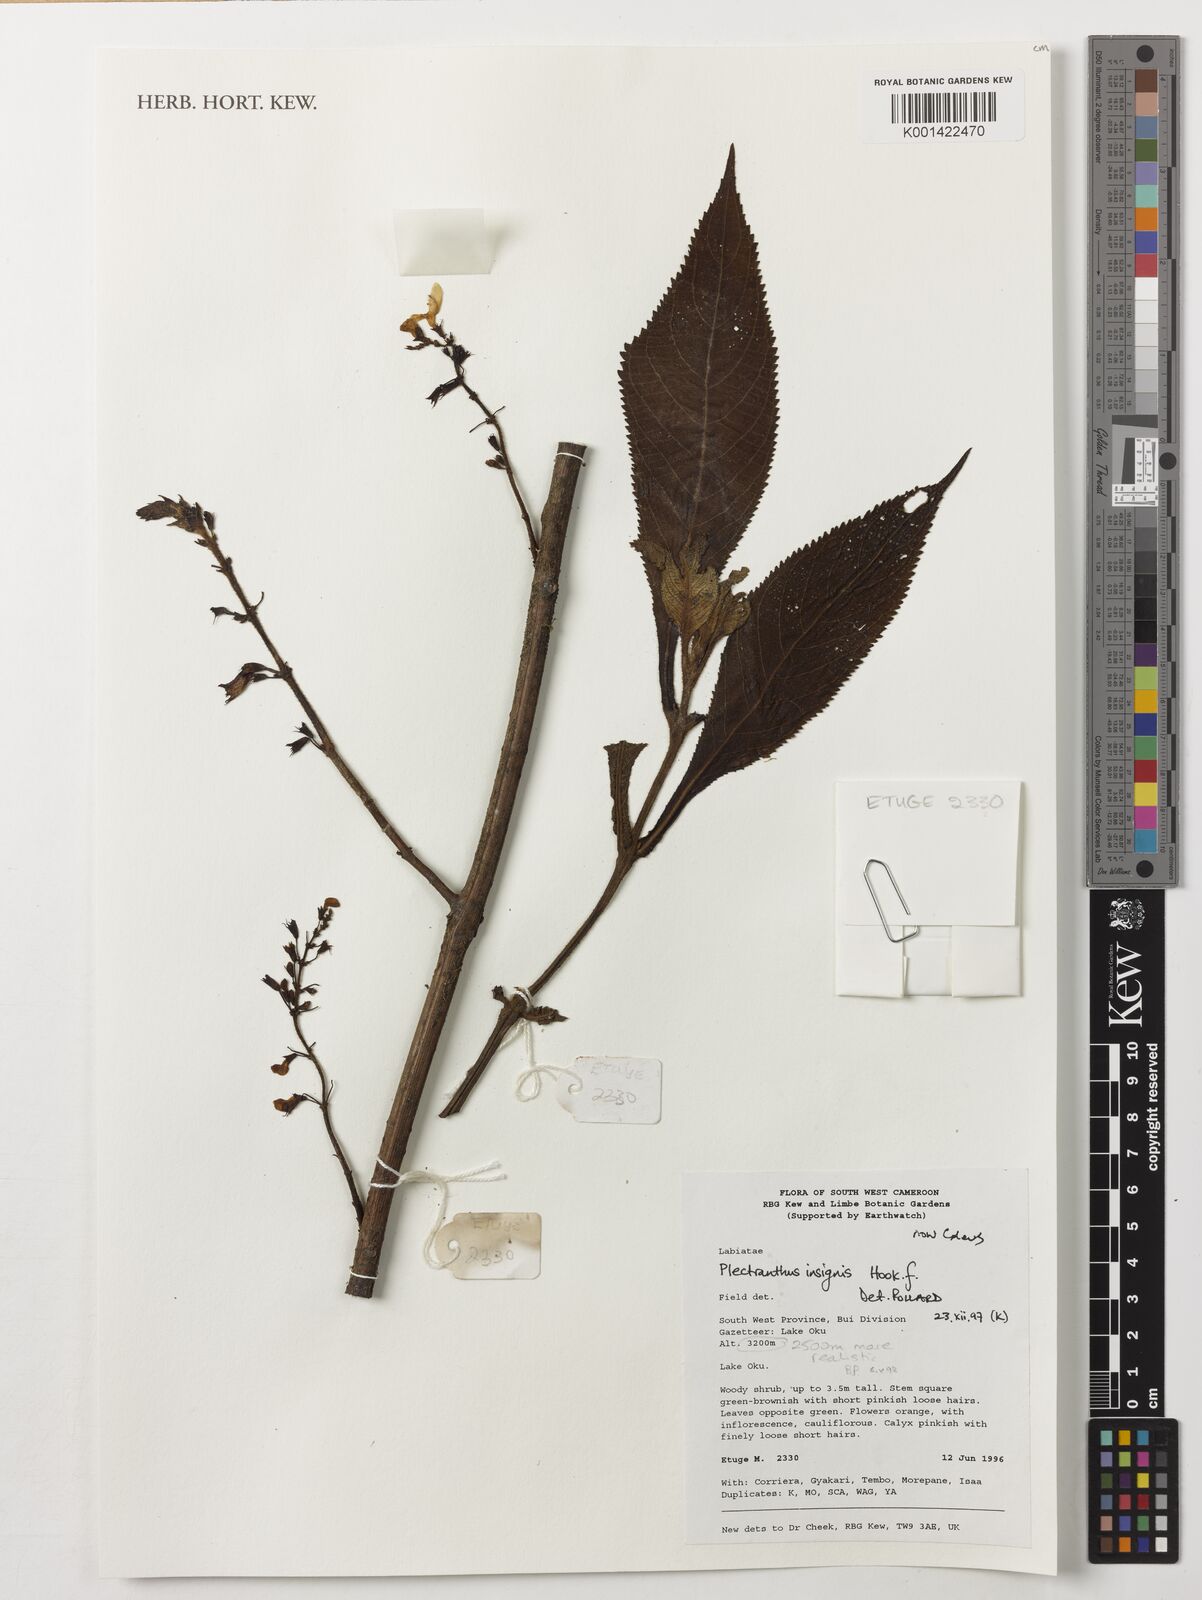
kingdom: Plantae
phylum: Tracheophyta
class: Magnoliopsida
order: Lamiales
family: Lamiaceae
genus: Coleus
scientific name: Coleus insignis
